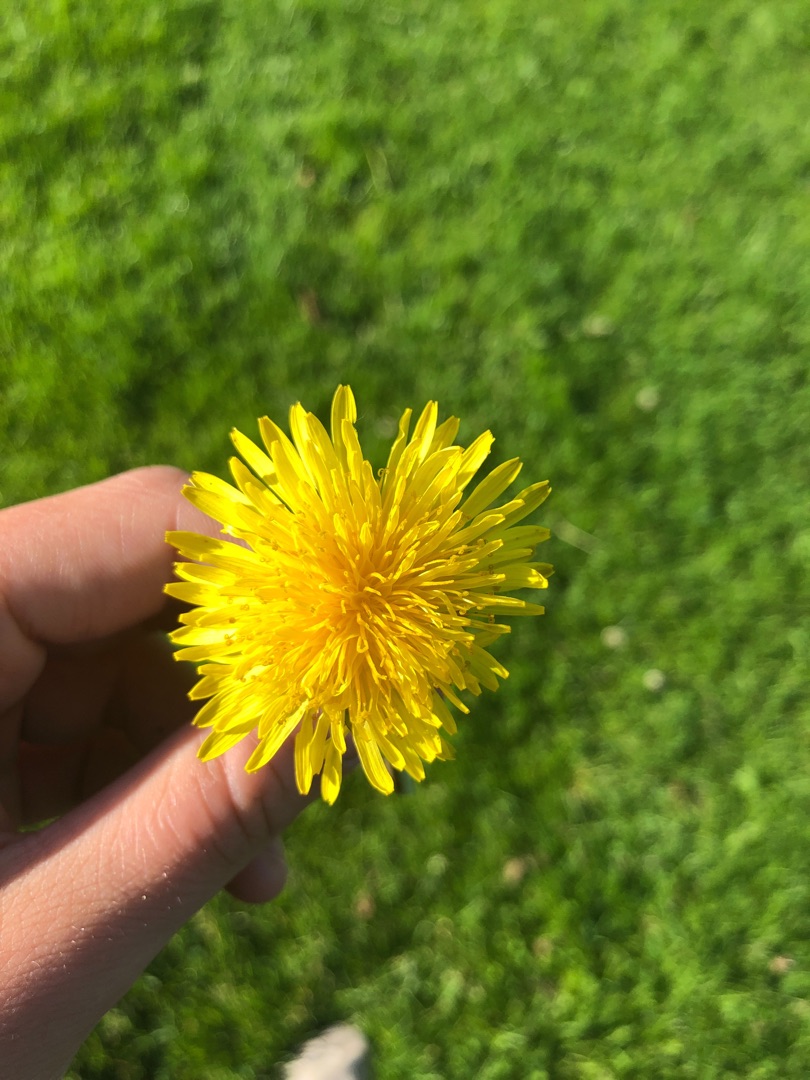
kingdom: Plantae
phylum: Tracheophyta
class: Magnoliopsida
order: Asterales
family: Asteraceae
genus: Taraxacum
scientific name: Taraxacum
